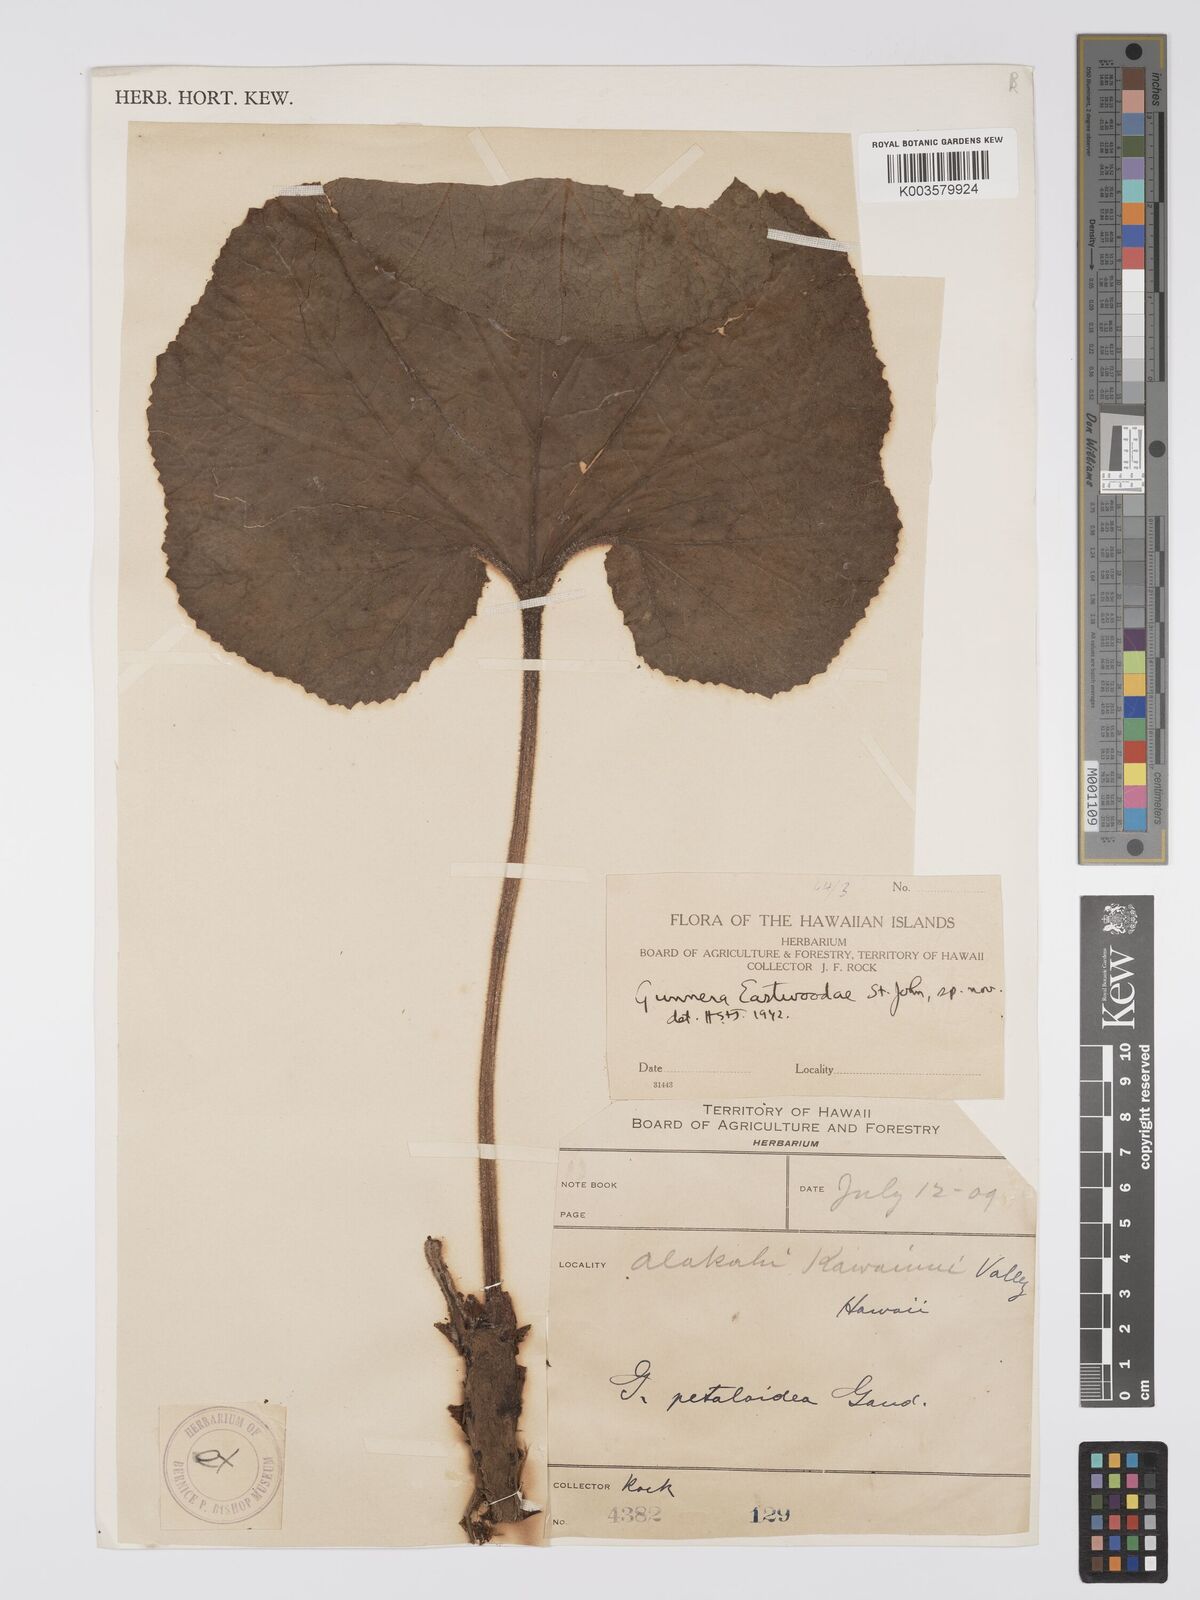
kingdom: Plantae
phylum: Tracheophyta
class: Magnoliopsida
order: Gunnerales
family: Gunneraceae
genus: Gunnera
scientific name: Gunnera petaloidea
